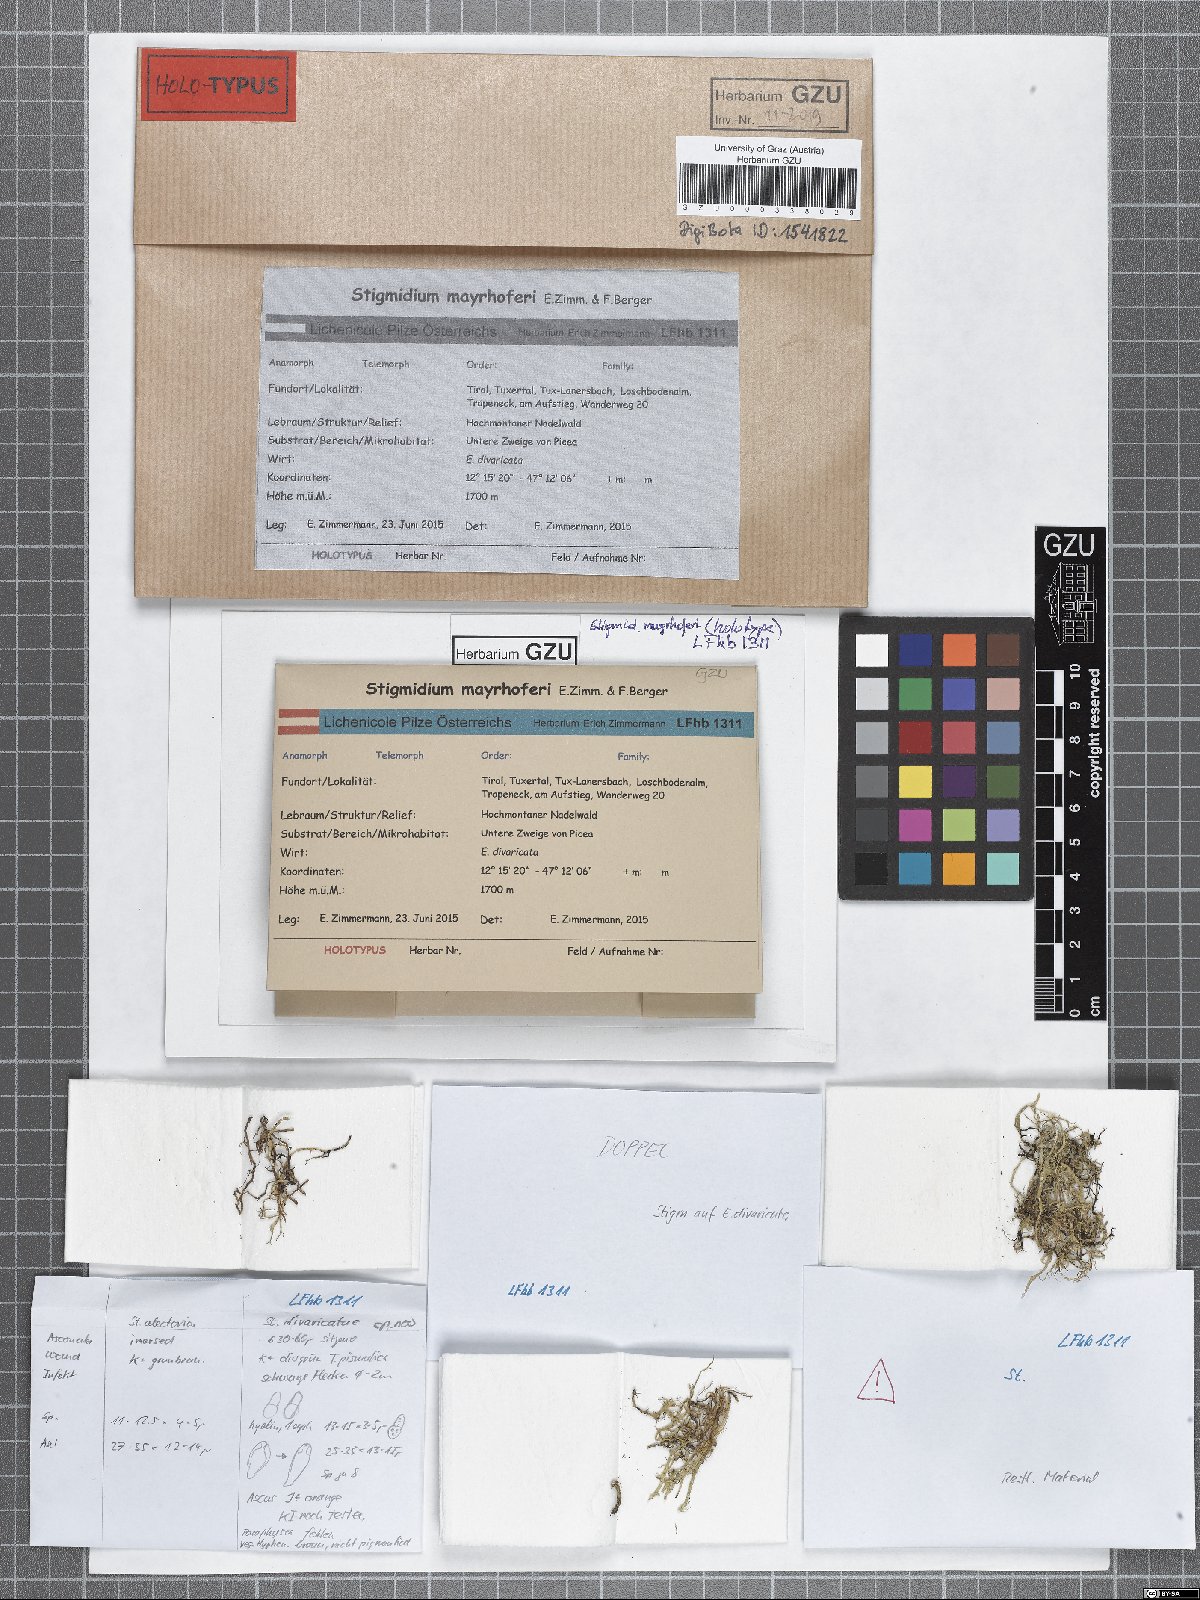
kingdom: Fungi
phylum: Ascomycota
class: Dothideomycetes
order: Mycosphaerellales
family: Mycosphaerellaceae
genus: Stigmidium
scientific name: Stigmidium mayrhoferi
